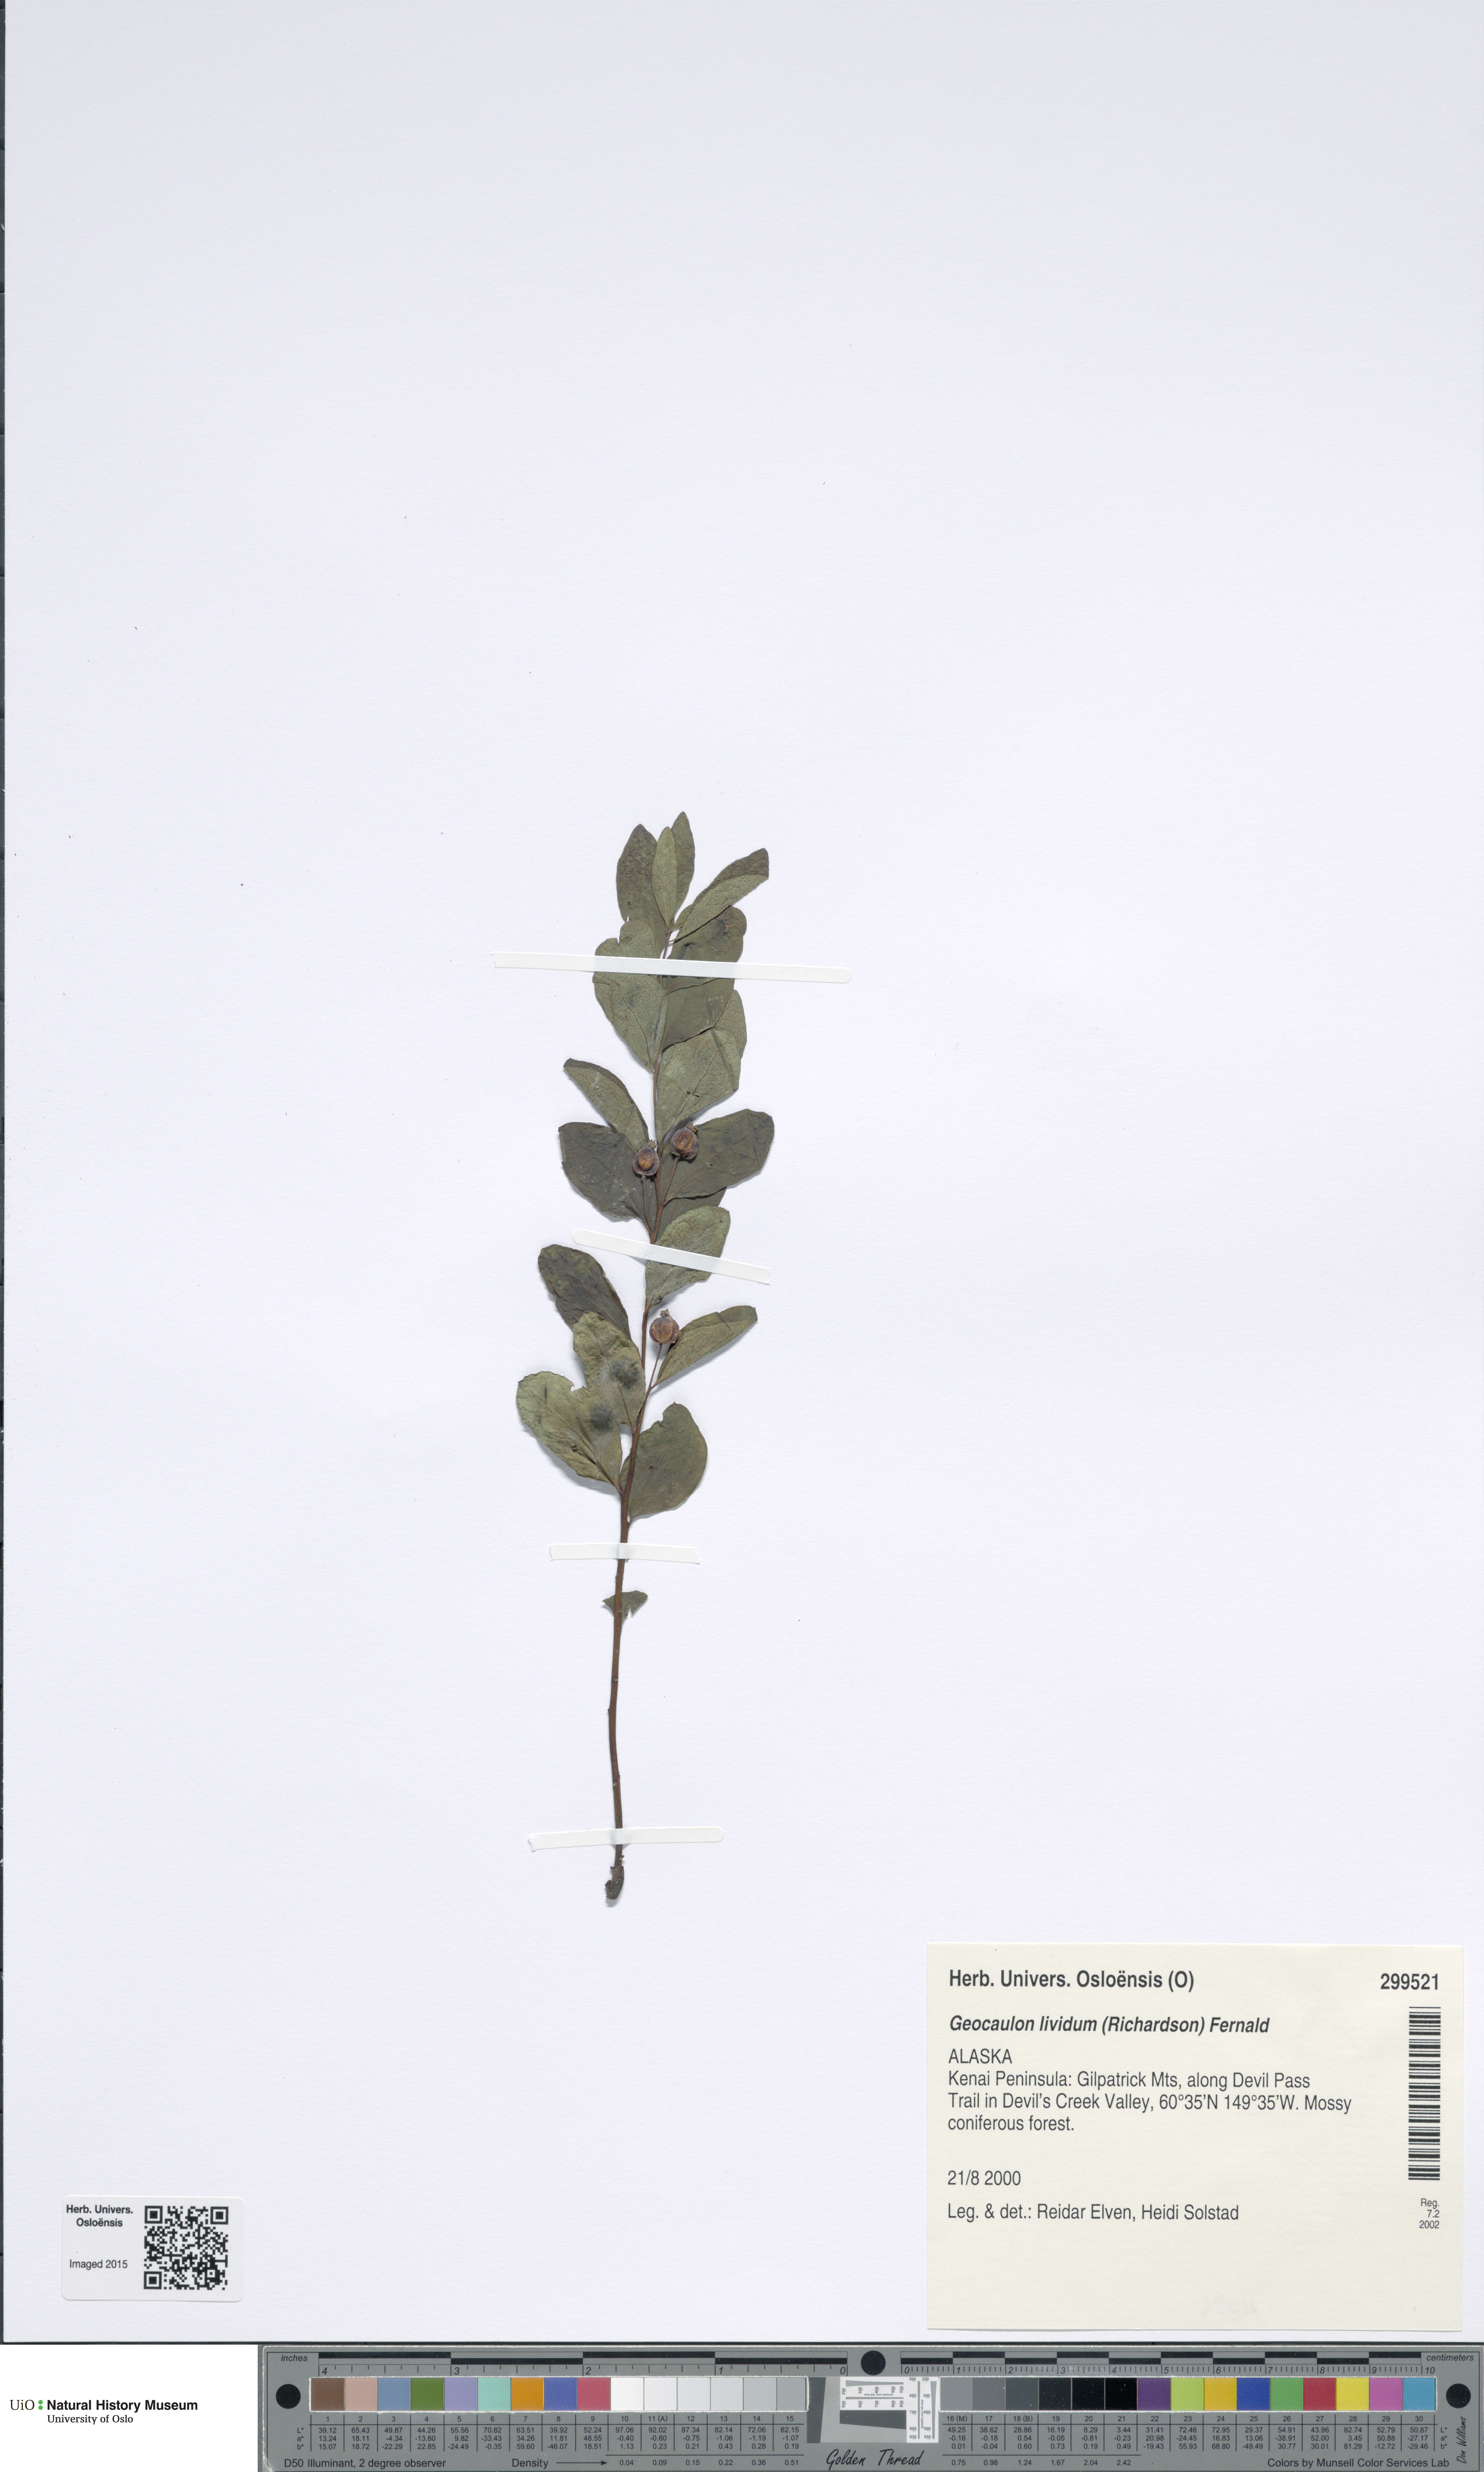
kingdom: Plantae
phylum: Tracheophyta
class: Magnoliopsida
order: Santalales
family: Comandraceae
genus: Geocaulon
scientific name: Geocaulon lividum
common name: Earthberry
